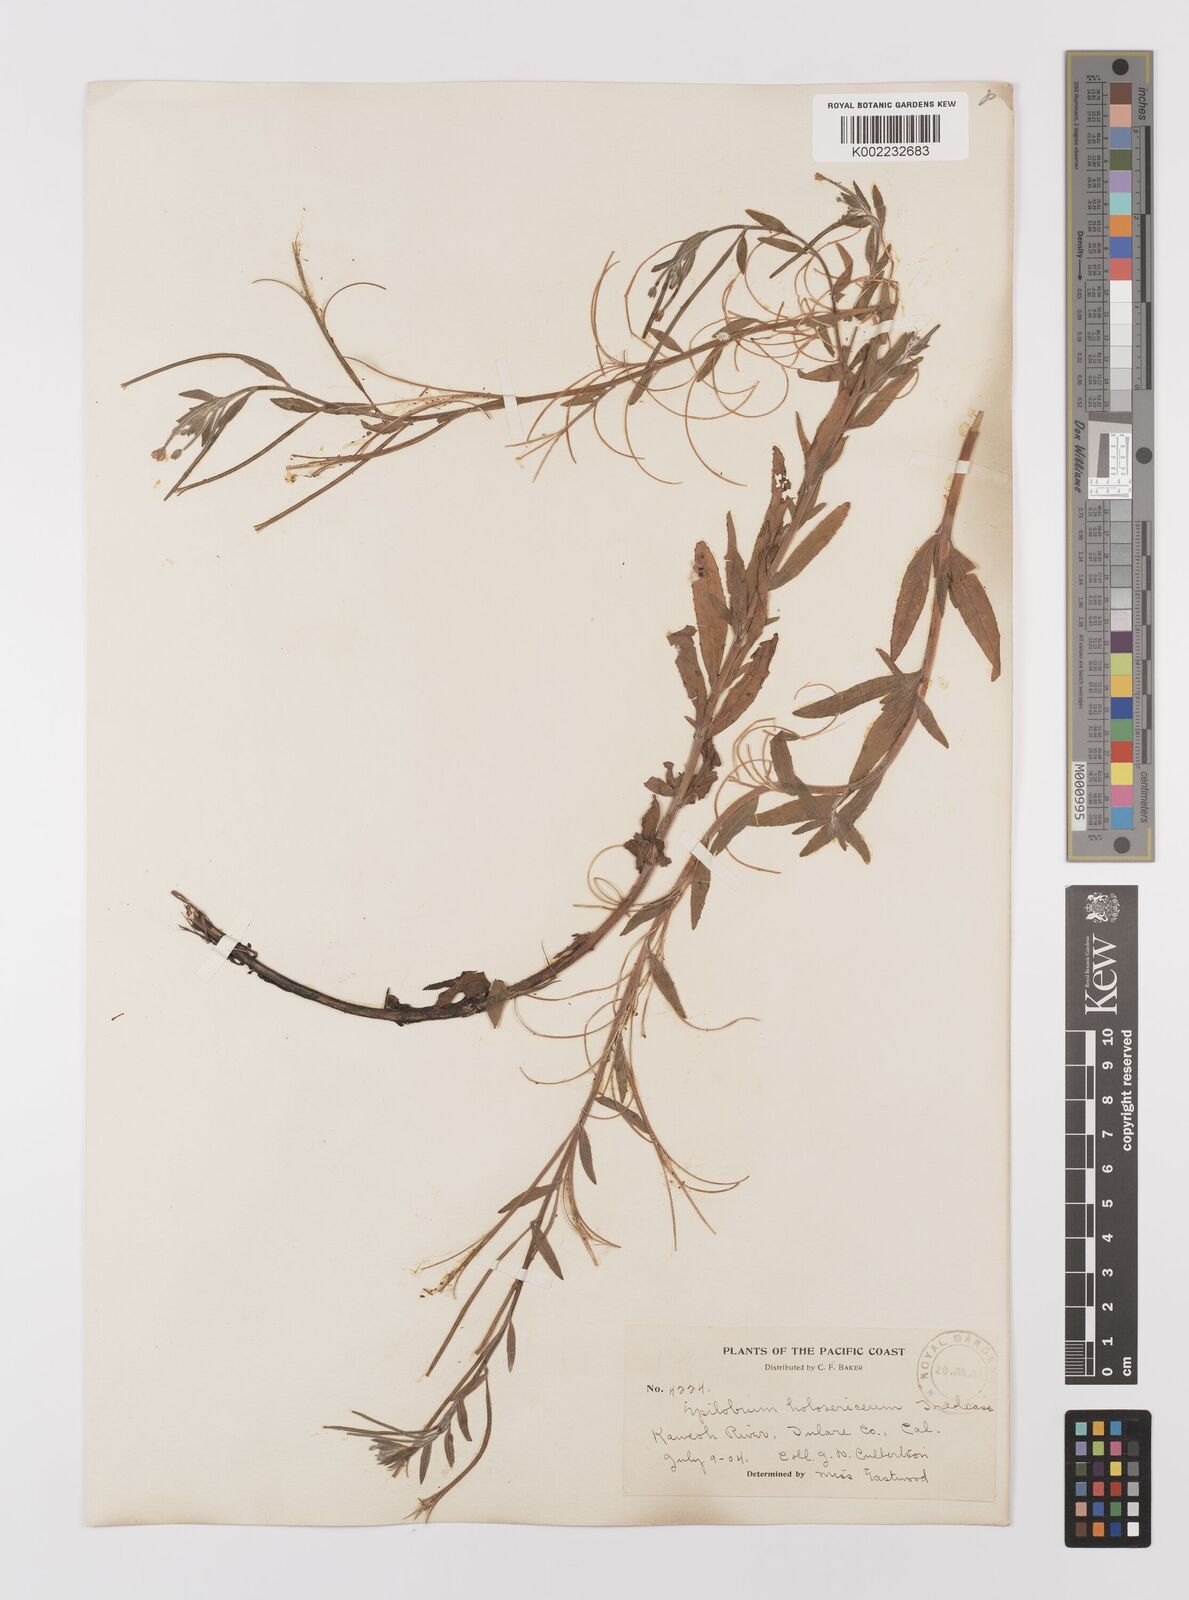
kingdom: Plantae
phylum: Tracheophyta
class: Magnoliopsida
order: Myrtales
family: Onagraceae
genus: Epilobium
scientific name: Epilobium ciliatum
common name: American willowherb
